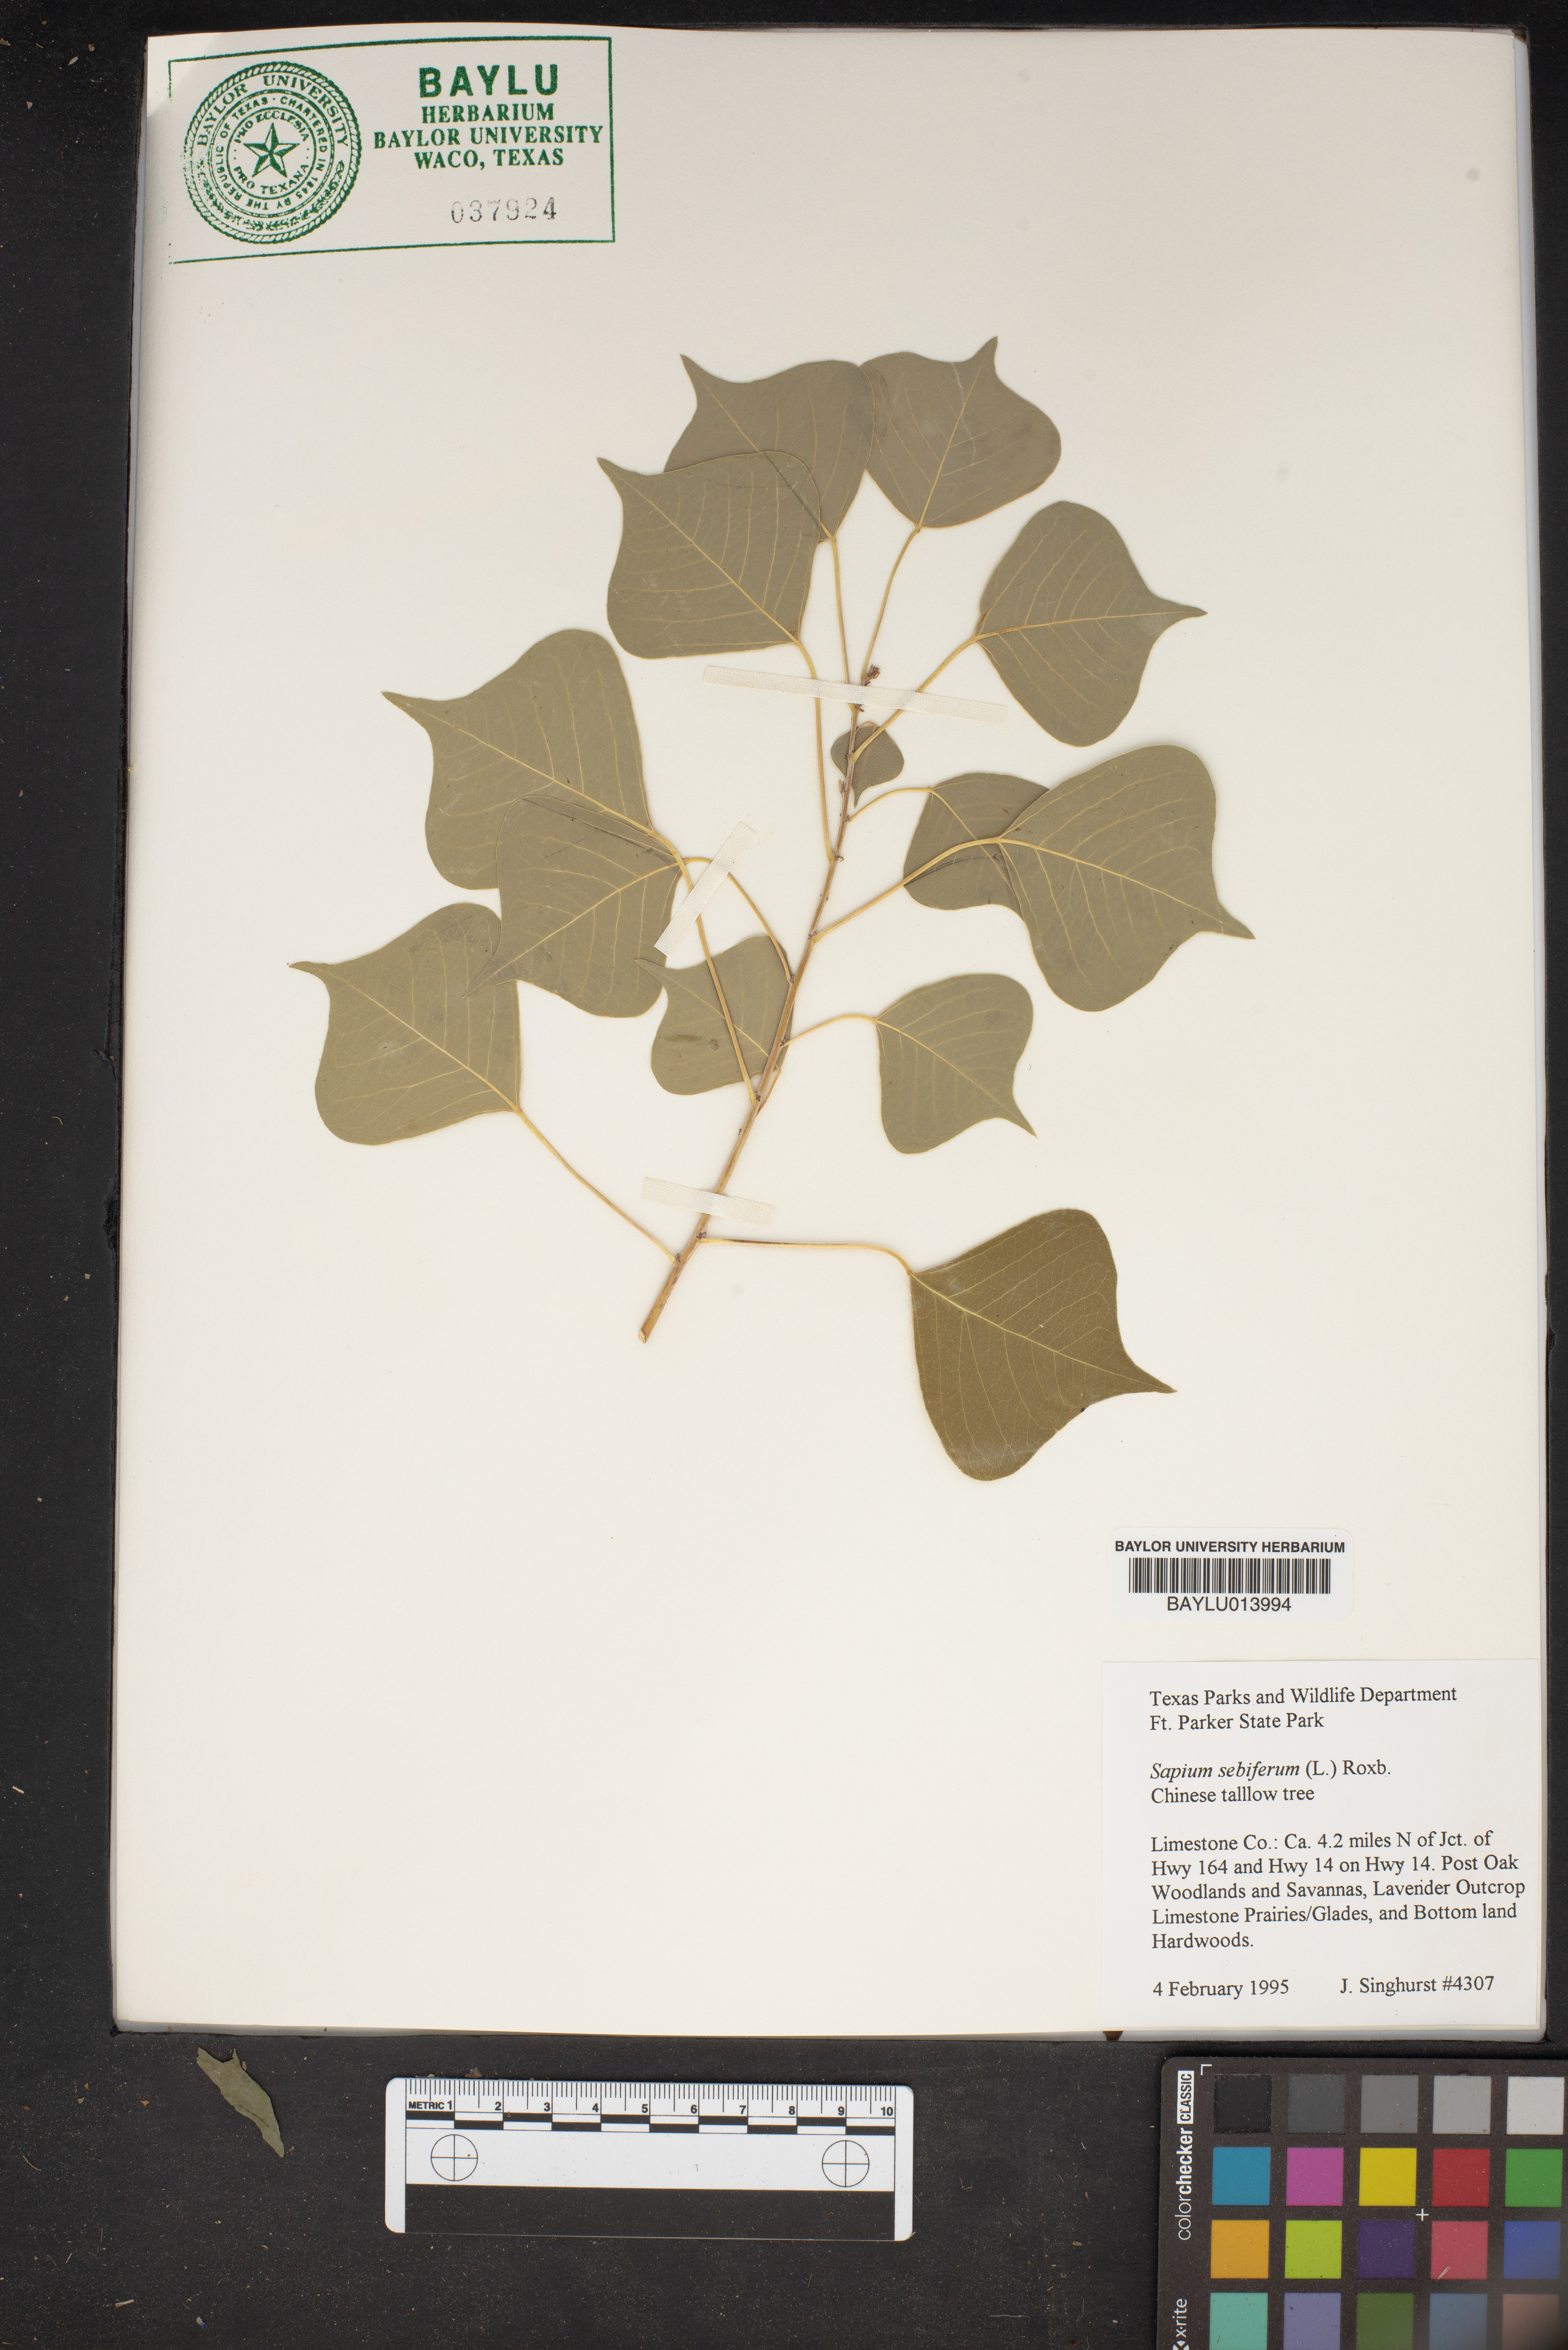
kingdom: Plantae
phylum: Tracheophyta
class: Magnoliopsida
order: Malpighiales
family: Euphorbiaceae
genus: Triadica
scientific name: Triadica sebifera
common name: Chinese tallow
